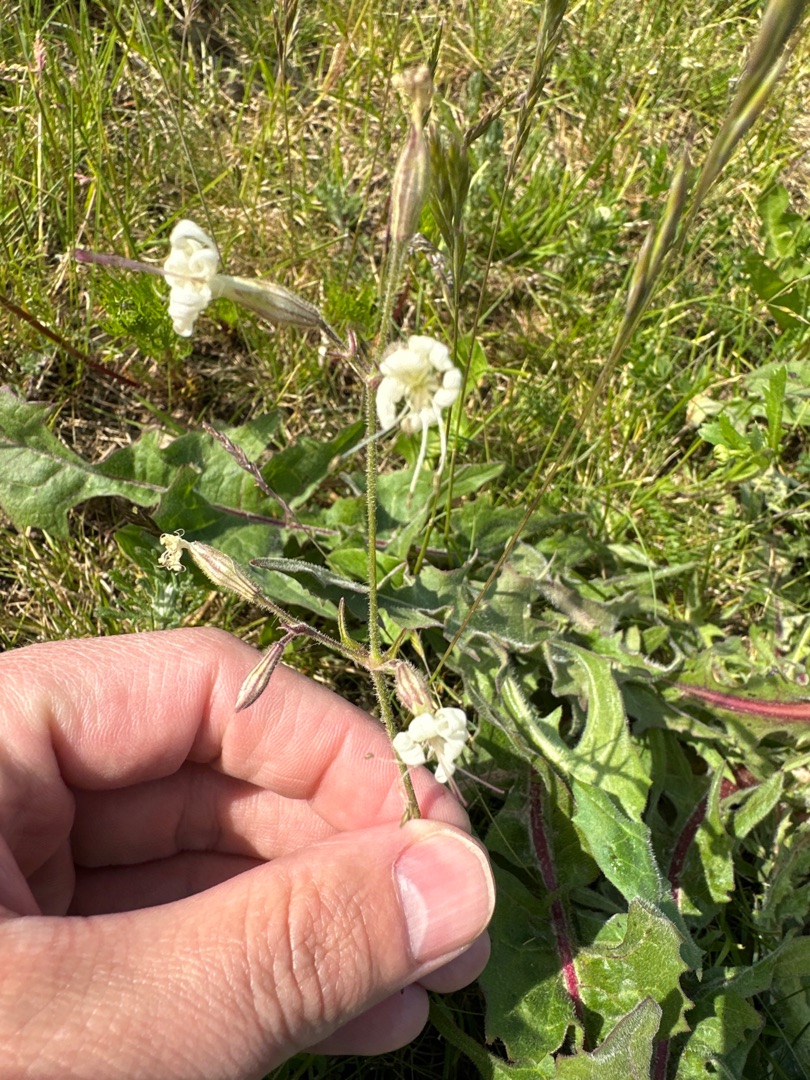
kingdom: Plantae
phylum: Tracheophyta
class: Magnoliopsida
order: Caryophyllales
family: Caryophyllaceae
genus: Silene
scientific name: Silene nutans
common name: Nikkende limurt
